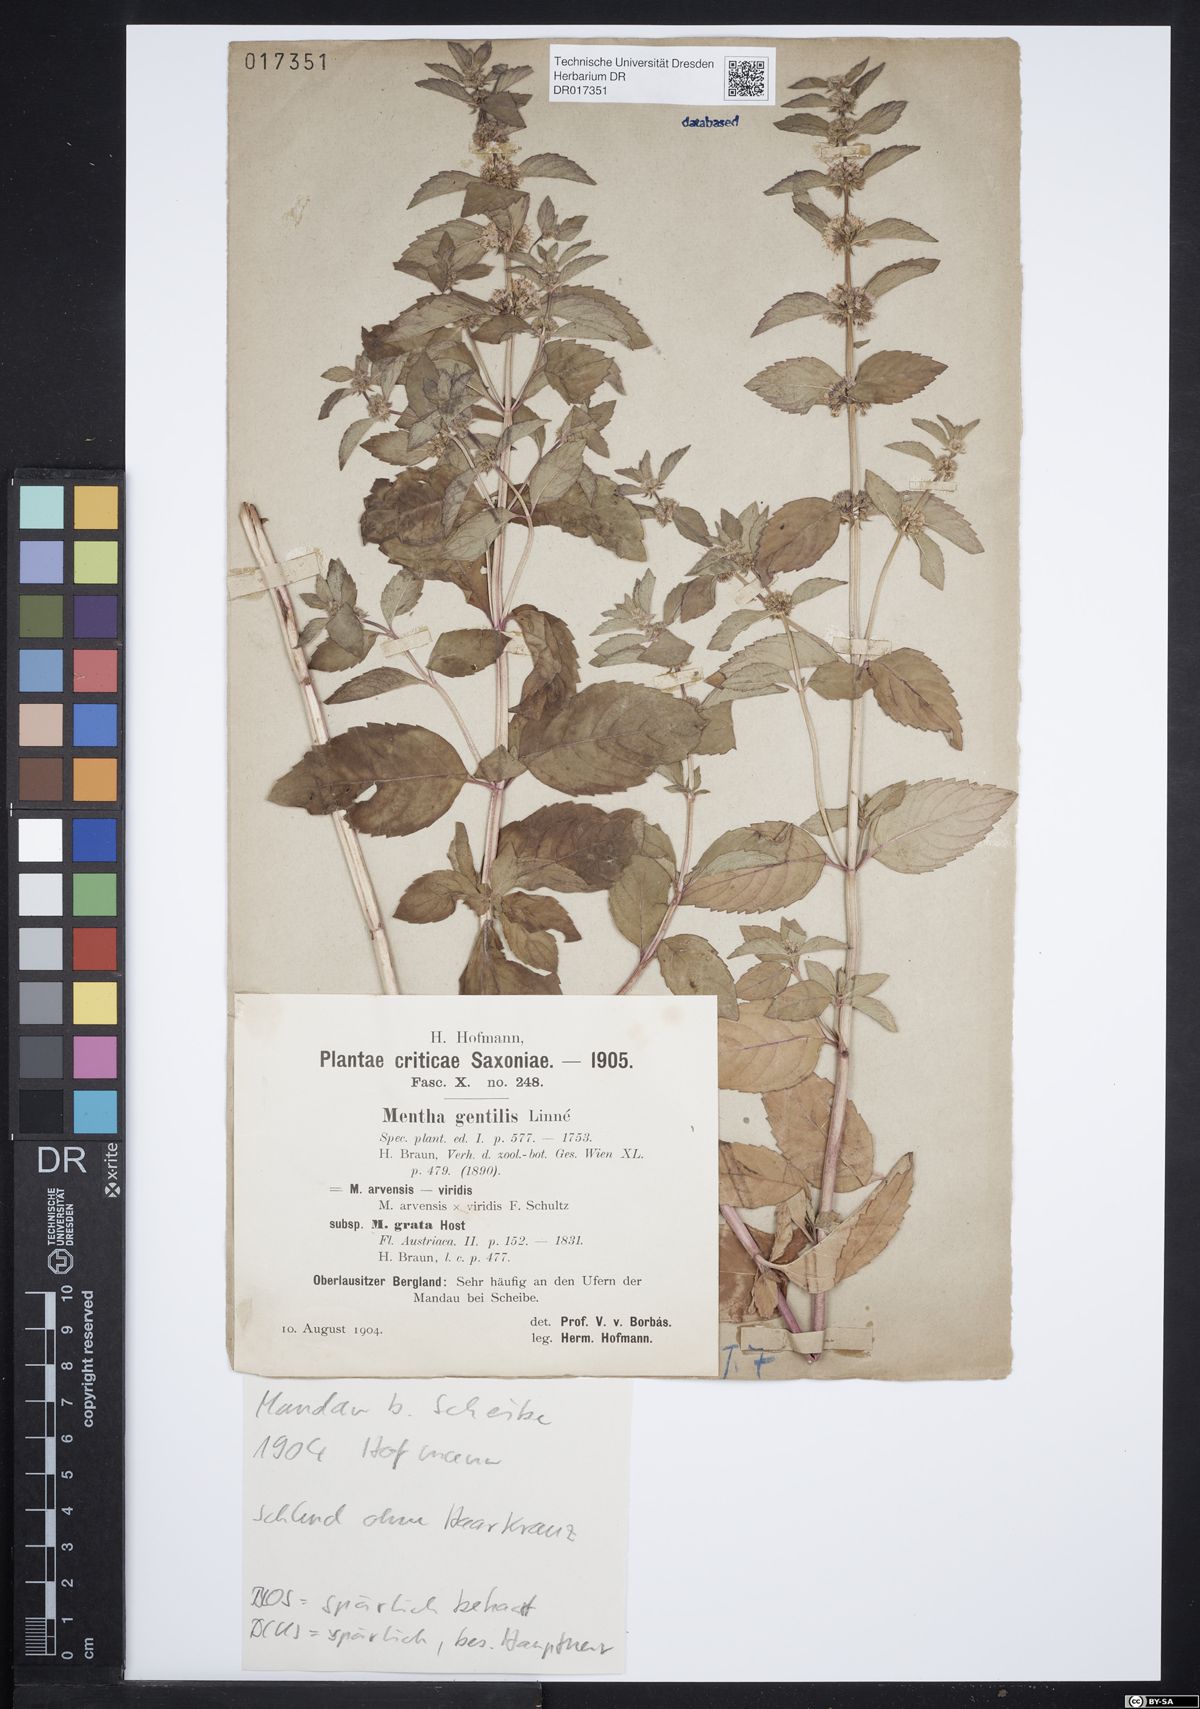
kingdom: Plantae
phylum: Tracheophyta
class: Magnoliopsida
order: Lamiales
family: Lamiaceae
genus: Mentha
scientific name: Mentha gracilis
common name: Bushy mint
